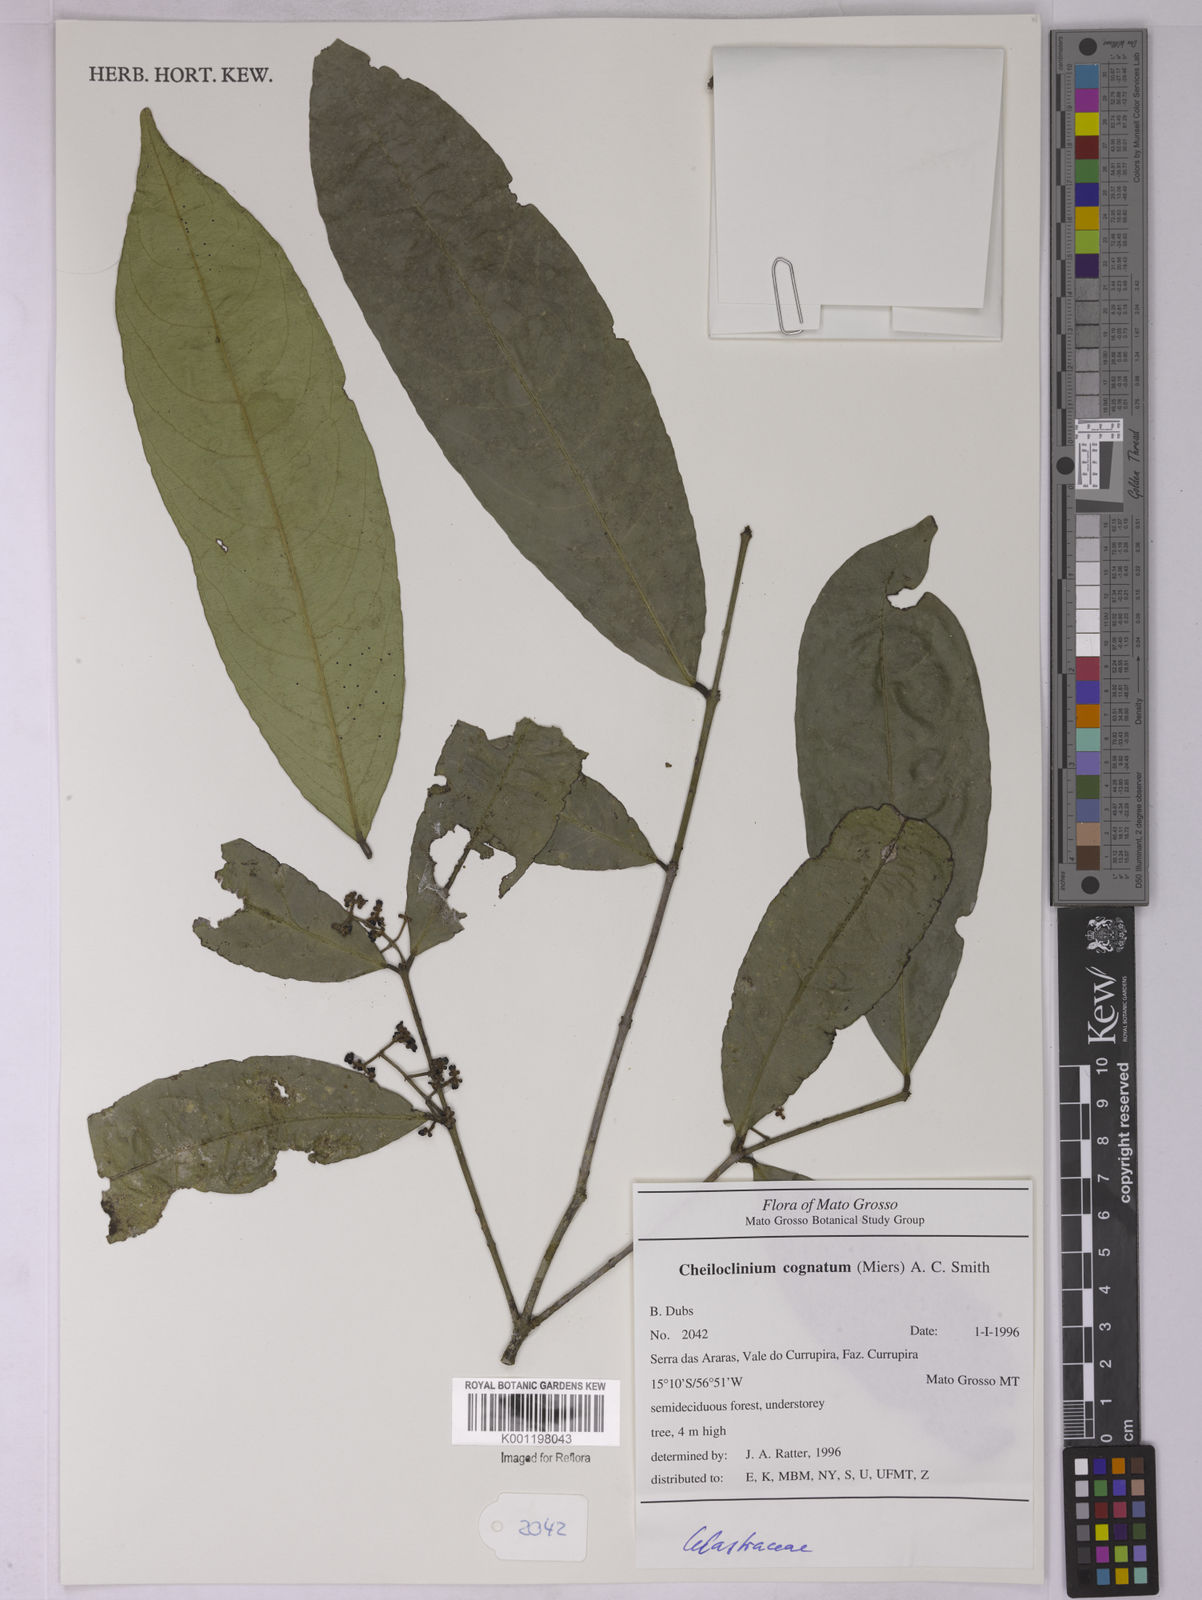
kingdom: Plantae
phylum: Tracheophyta
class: Magnoliopsida
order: Celastrales
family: Celastraceae
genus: Cheiloclinium
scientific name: Cheiloclinium cognatum
